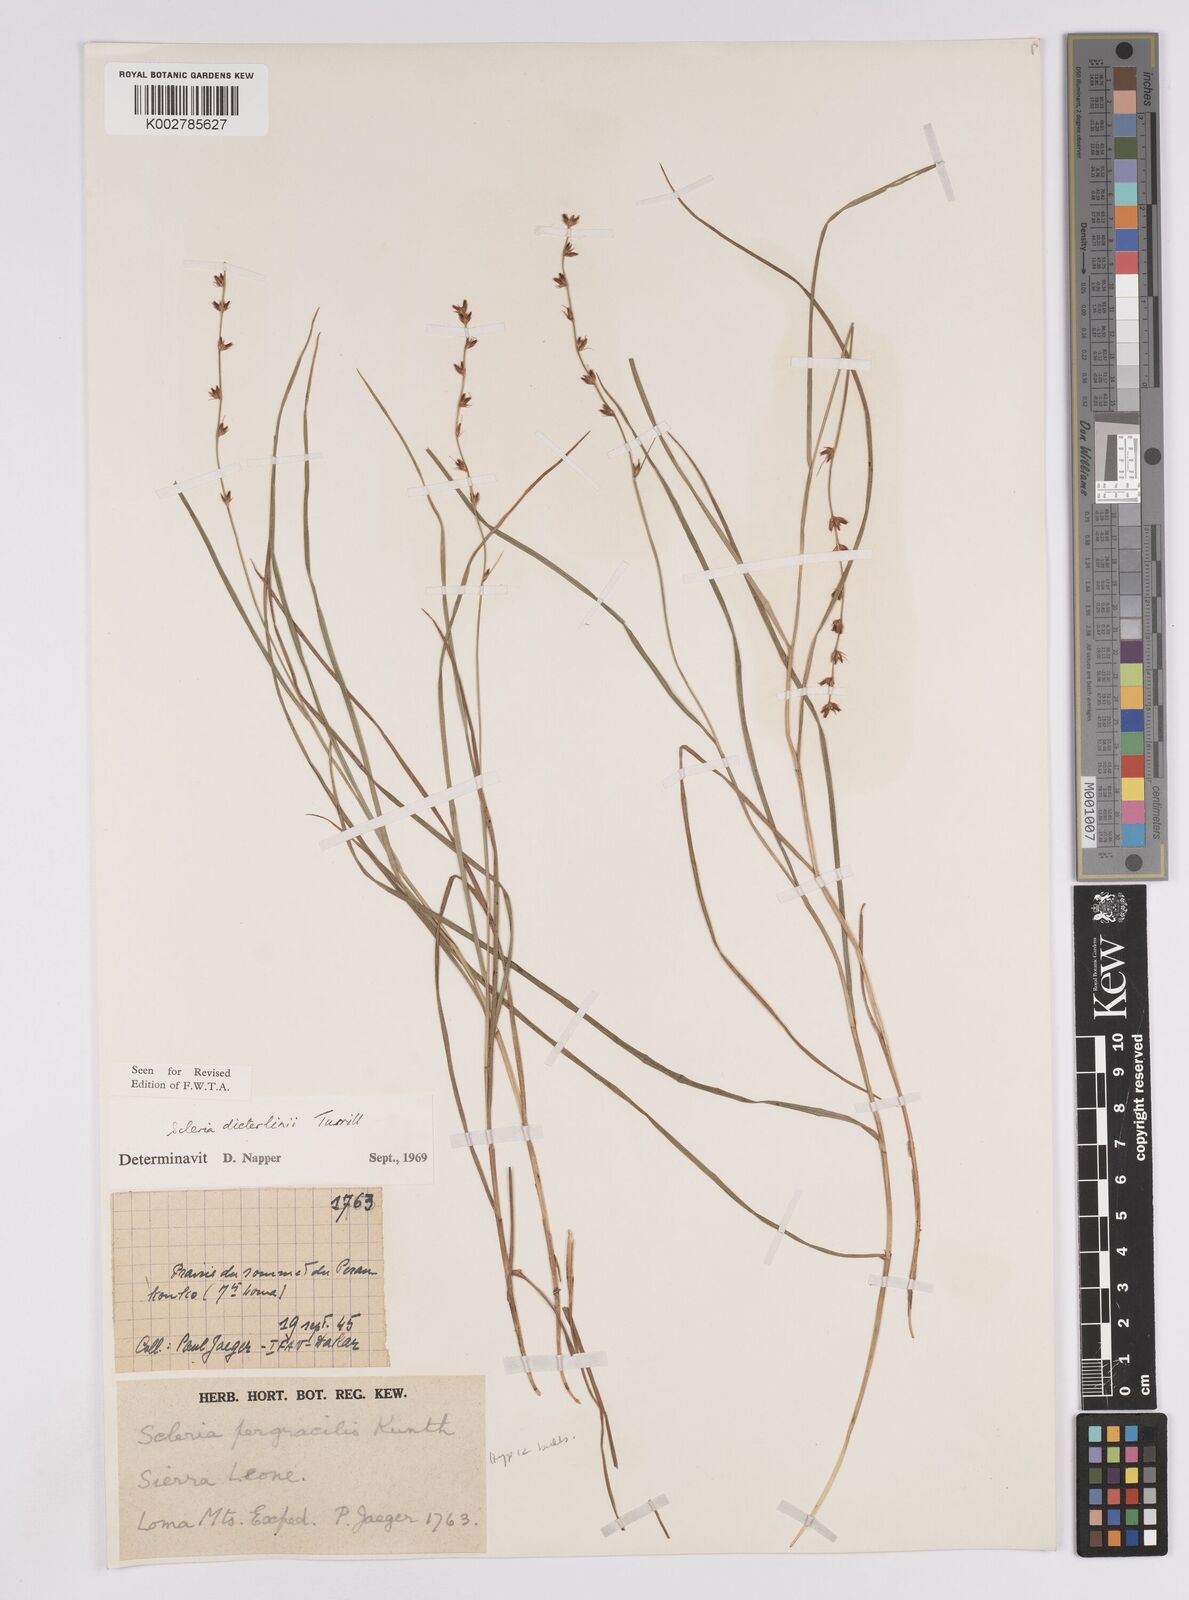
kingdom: Plantae
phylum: Tracheophyta
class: Liliopsida
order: Poales
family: Cyperaceae
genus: Scleria
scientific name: Scleria flexuosa
